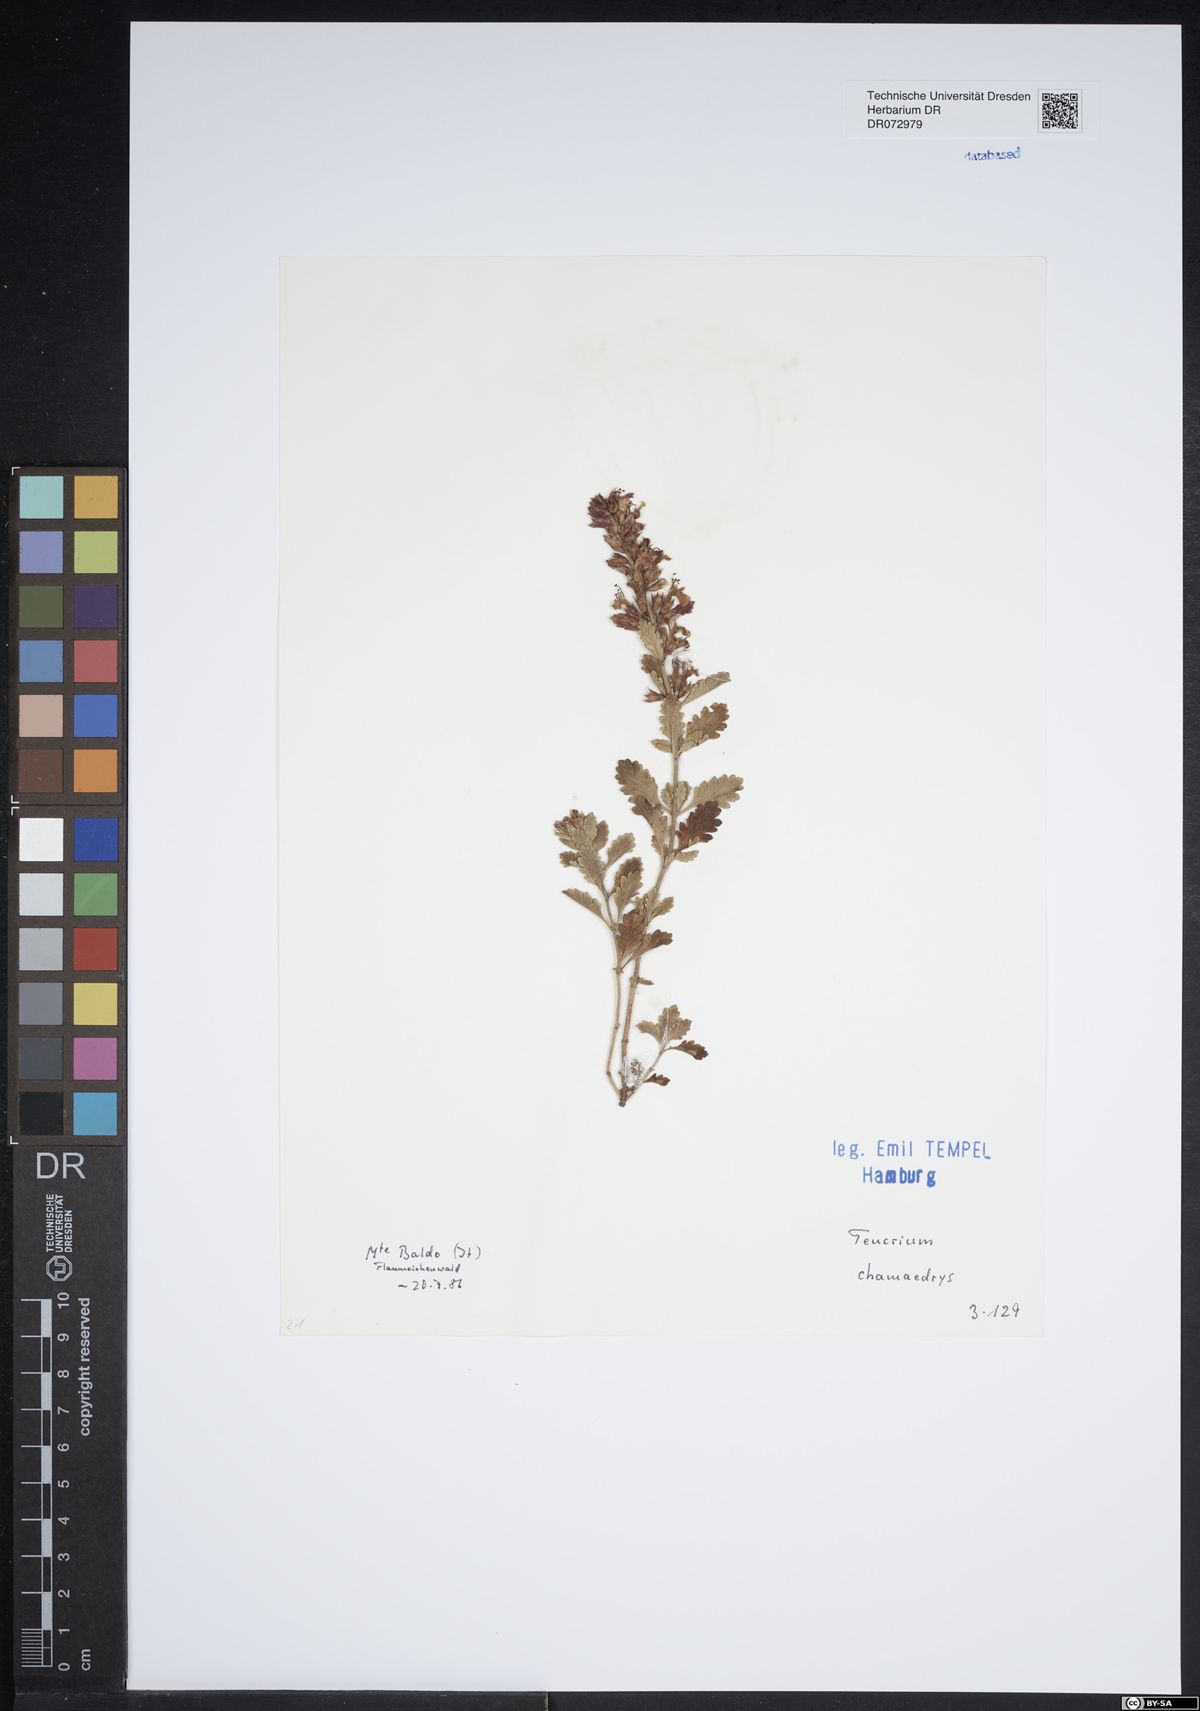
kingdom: Plantae
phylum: Tracheophyta
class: Magnoliopsida
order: Lamiales
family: Lamiaceae
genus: Teucrium
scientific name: Teucrium chamaedrys
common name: Wall germander
